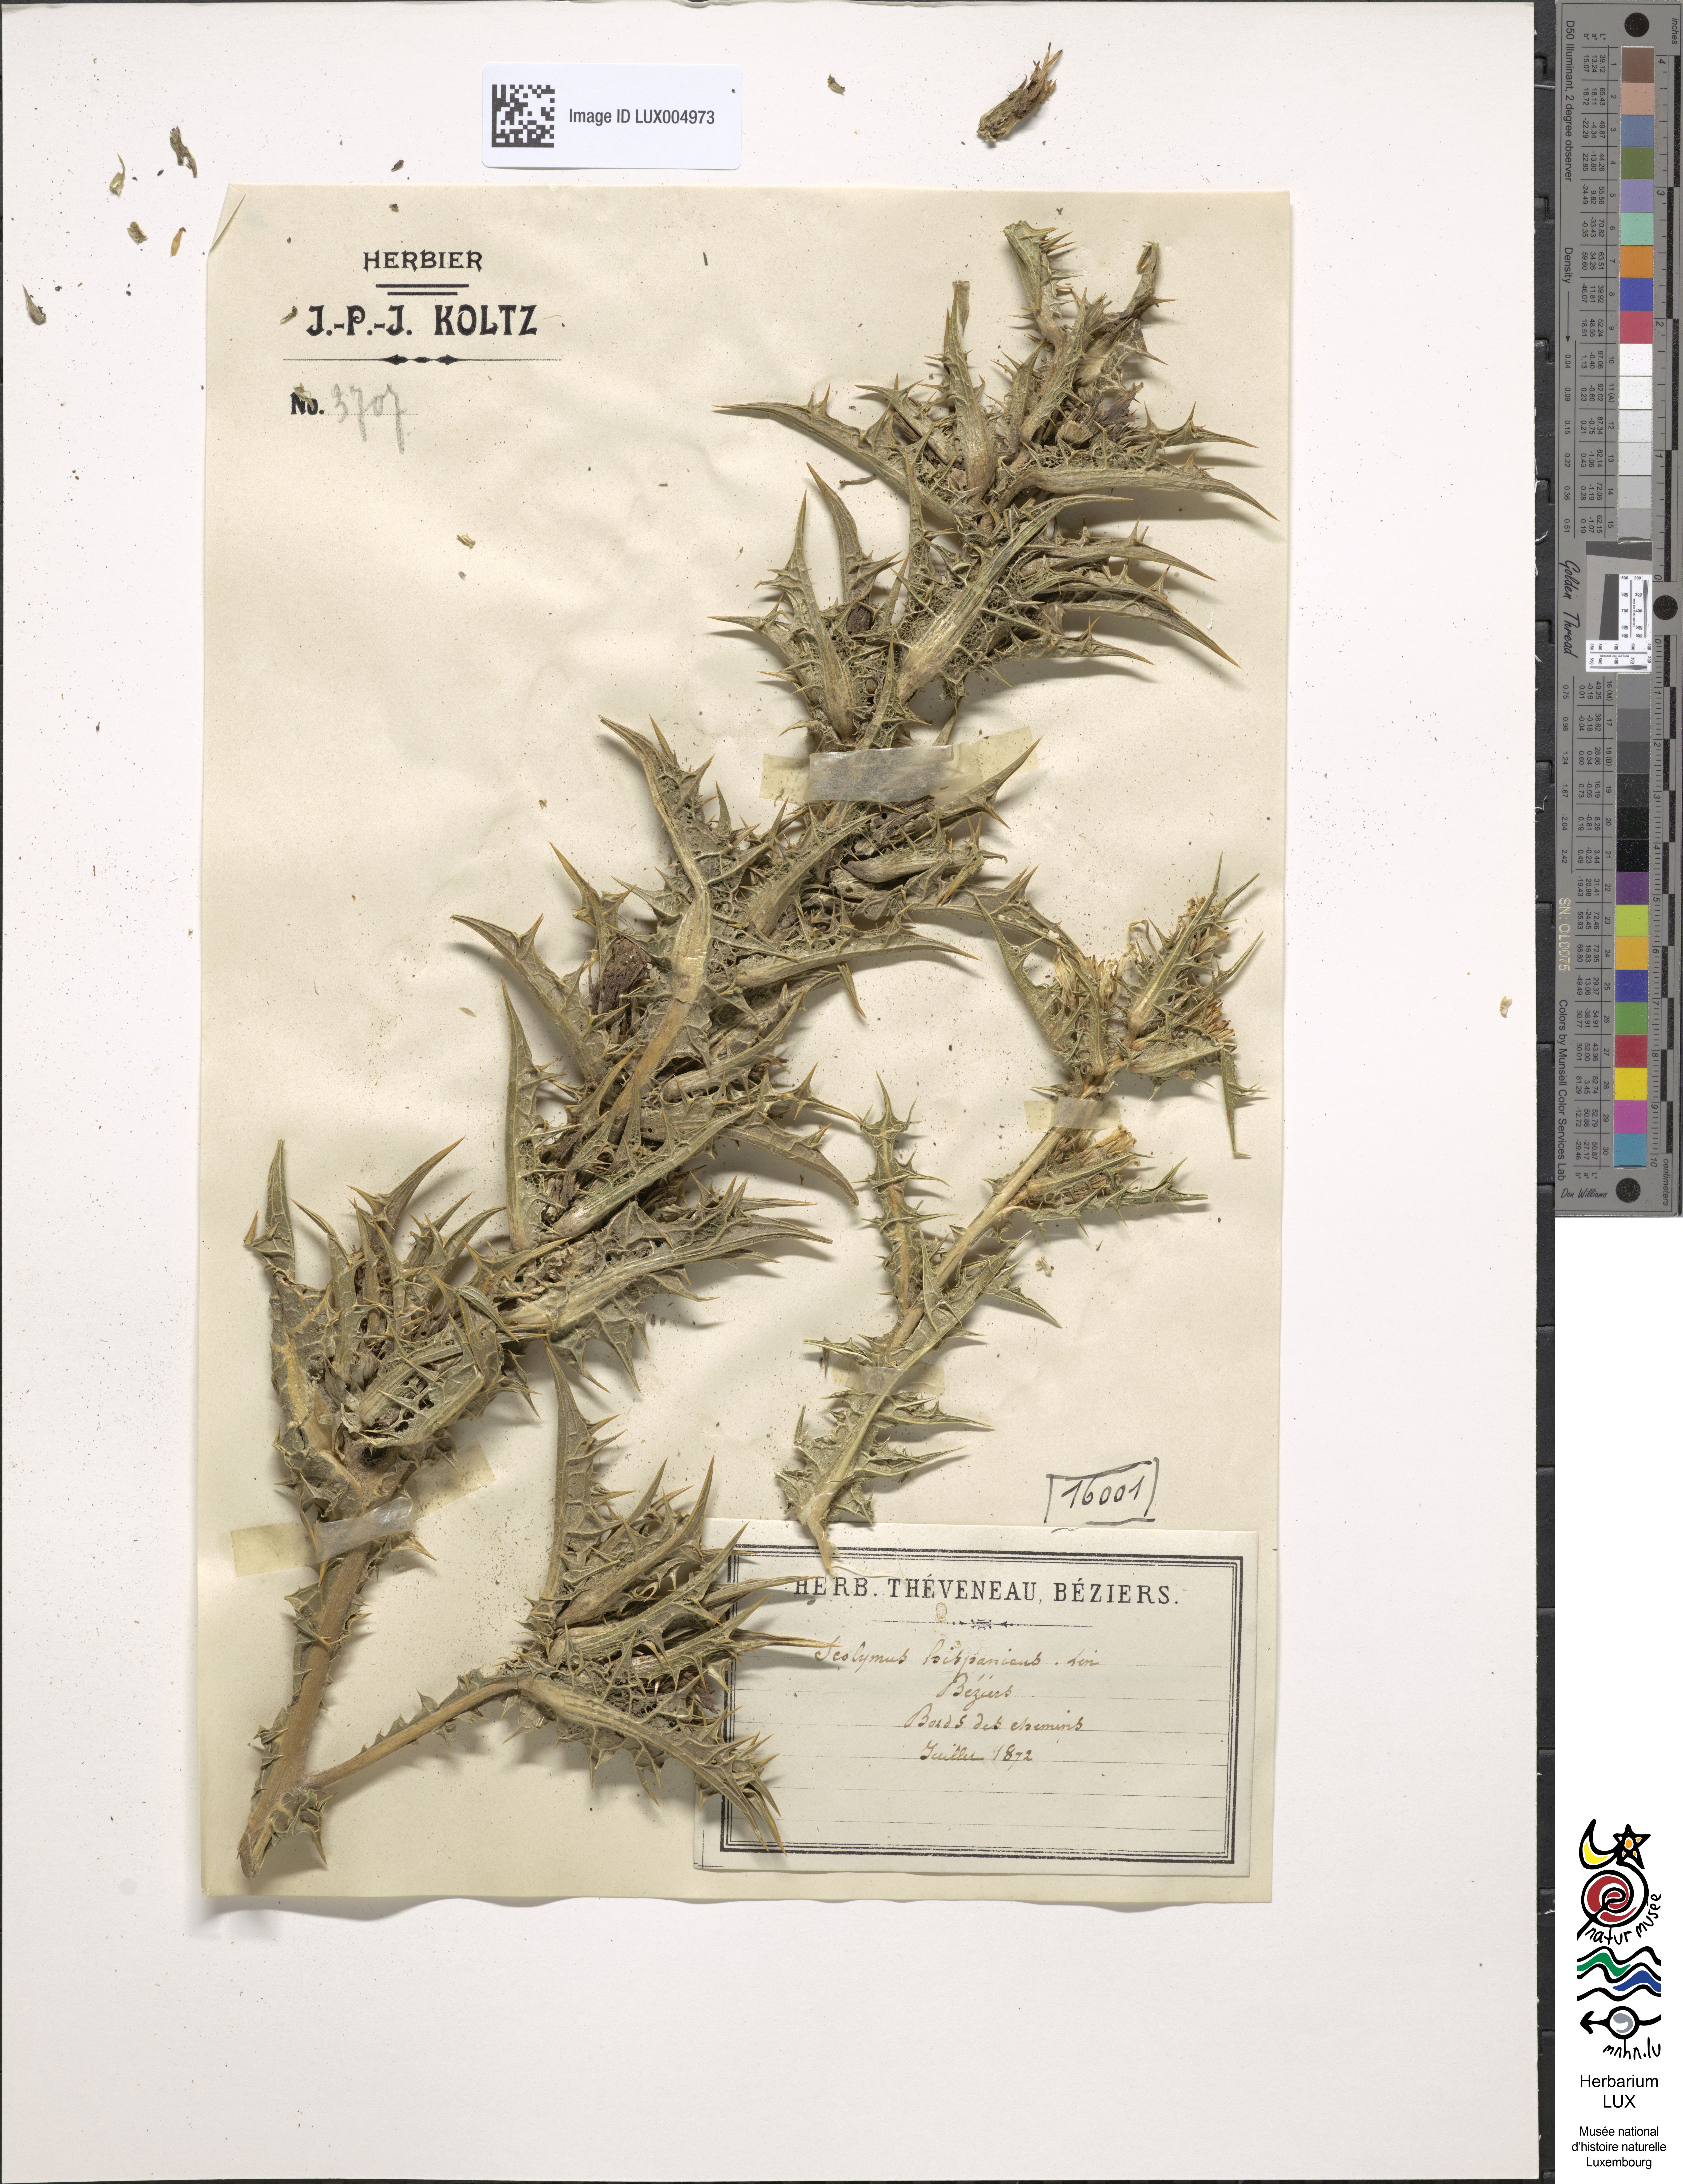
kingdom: Plantae
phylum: Tracheophyta
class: Magnoliopsida
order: Asterales
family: Asteraceae
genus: Scolymus
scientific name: Scolymus hispanicus
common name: Golden thistle
